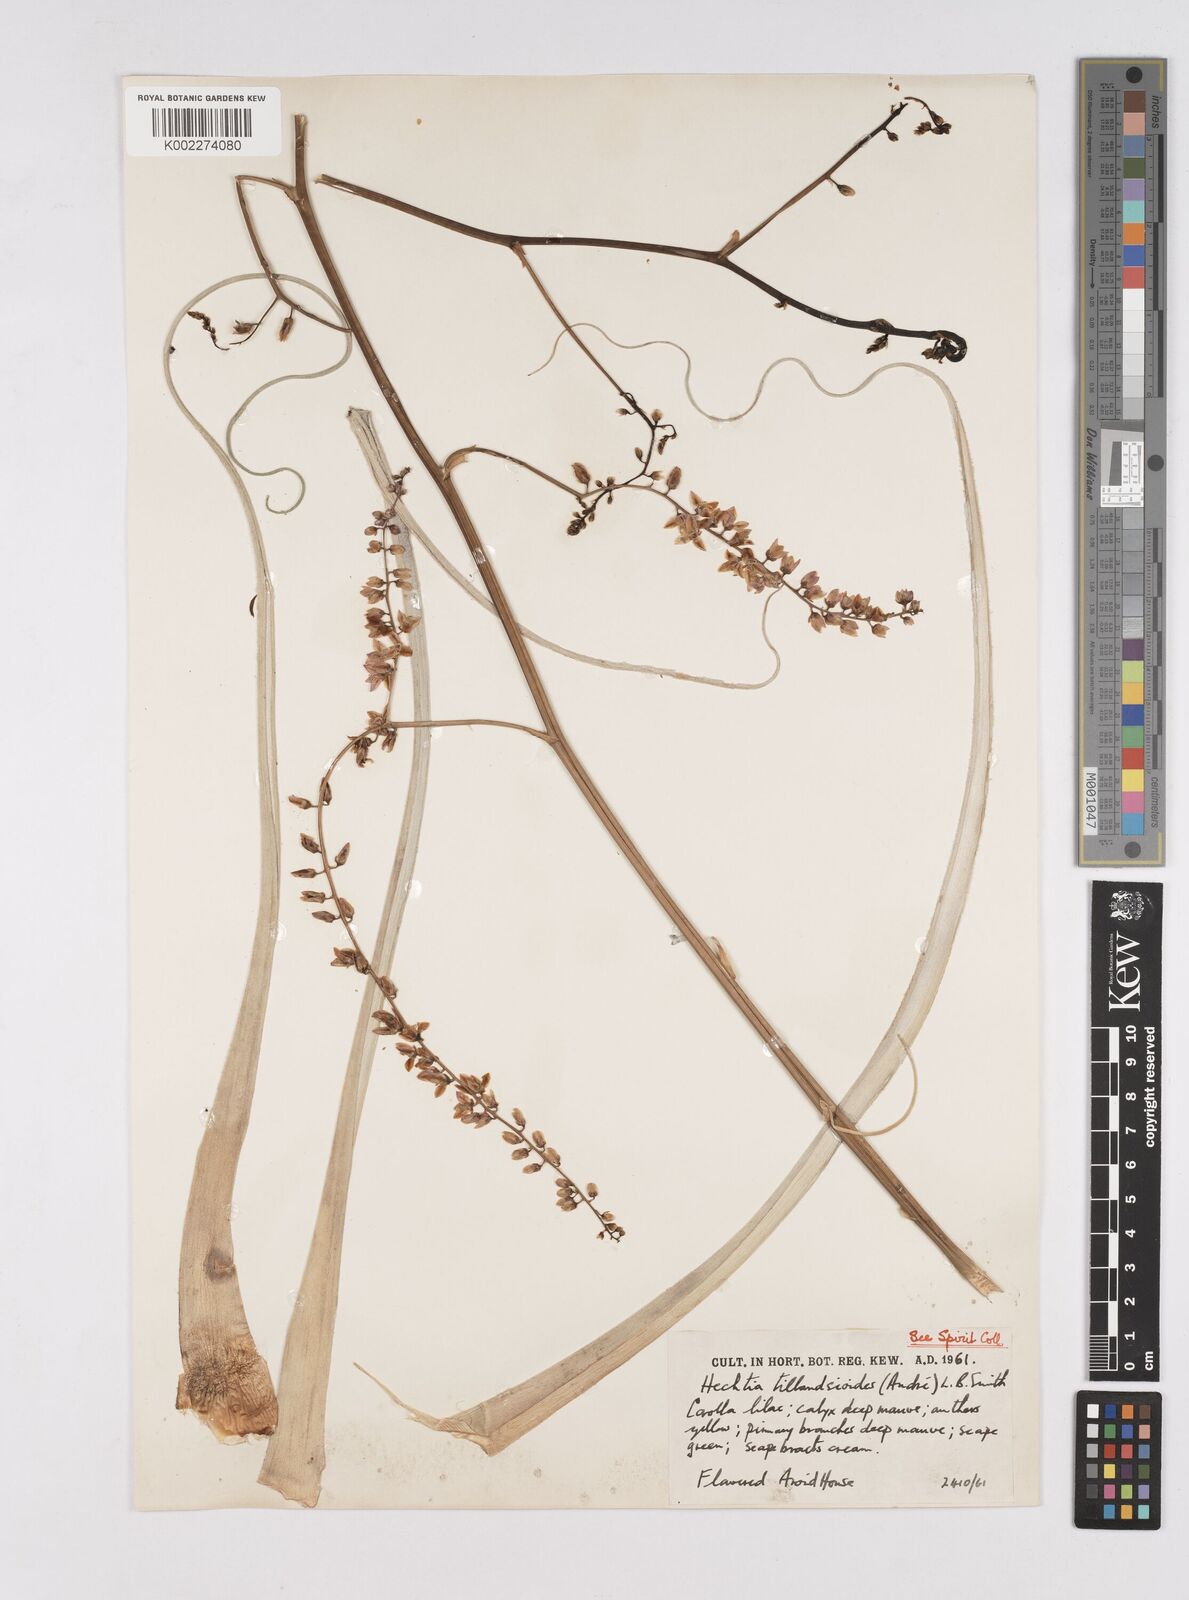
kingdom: Plantae
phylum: Tracheophyta
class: Liliopsida
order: Poales
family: Bromeliaceae
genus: Hechtia
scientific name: Hechtia tillandsioides
